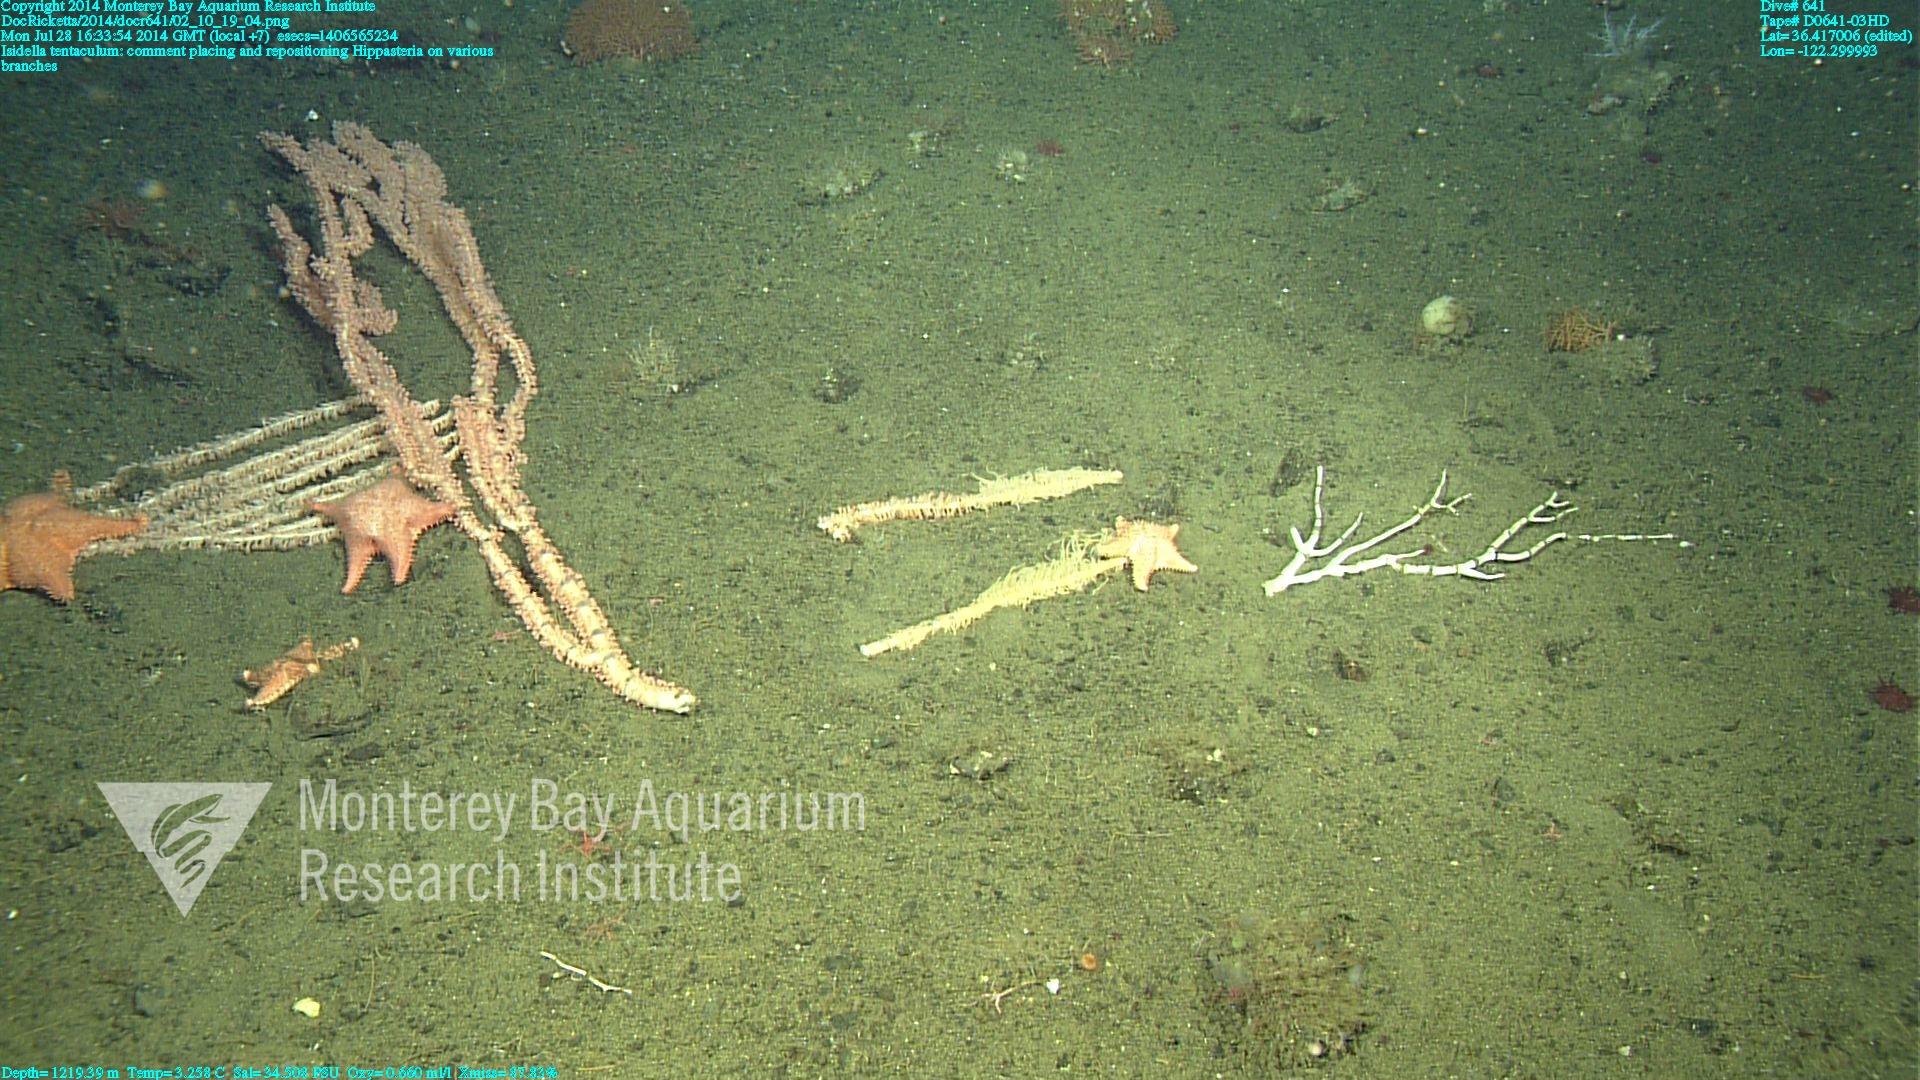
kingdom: Animalia
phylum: Cnidaria
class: Anthozoa
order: Scleralcyonacea
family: Keratoisididae
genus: Isidella
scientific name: Isidella tentaculum
